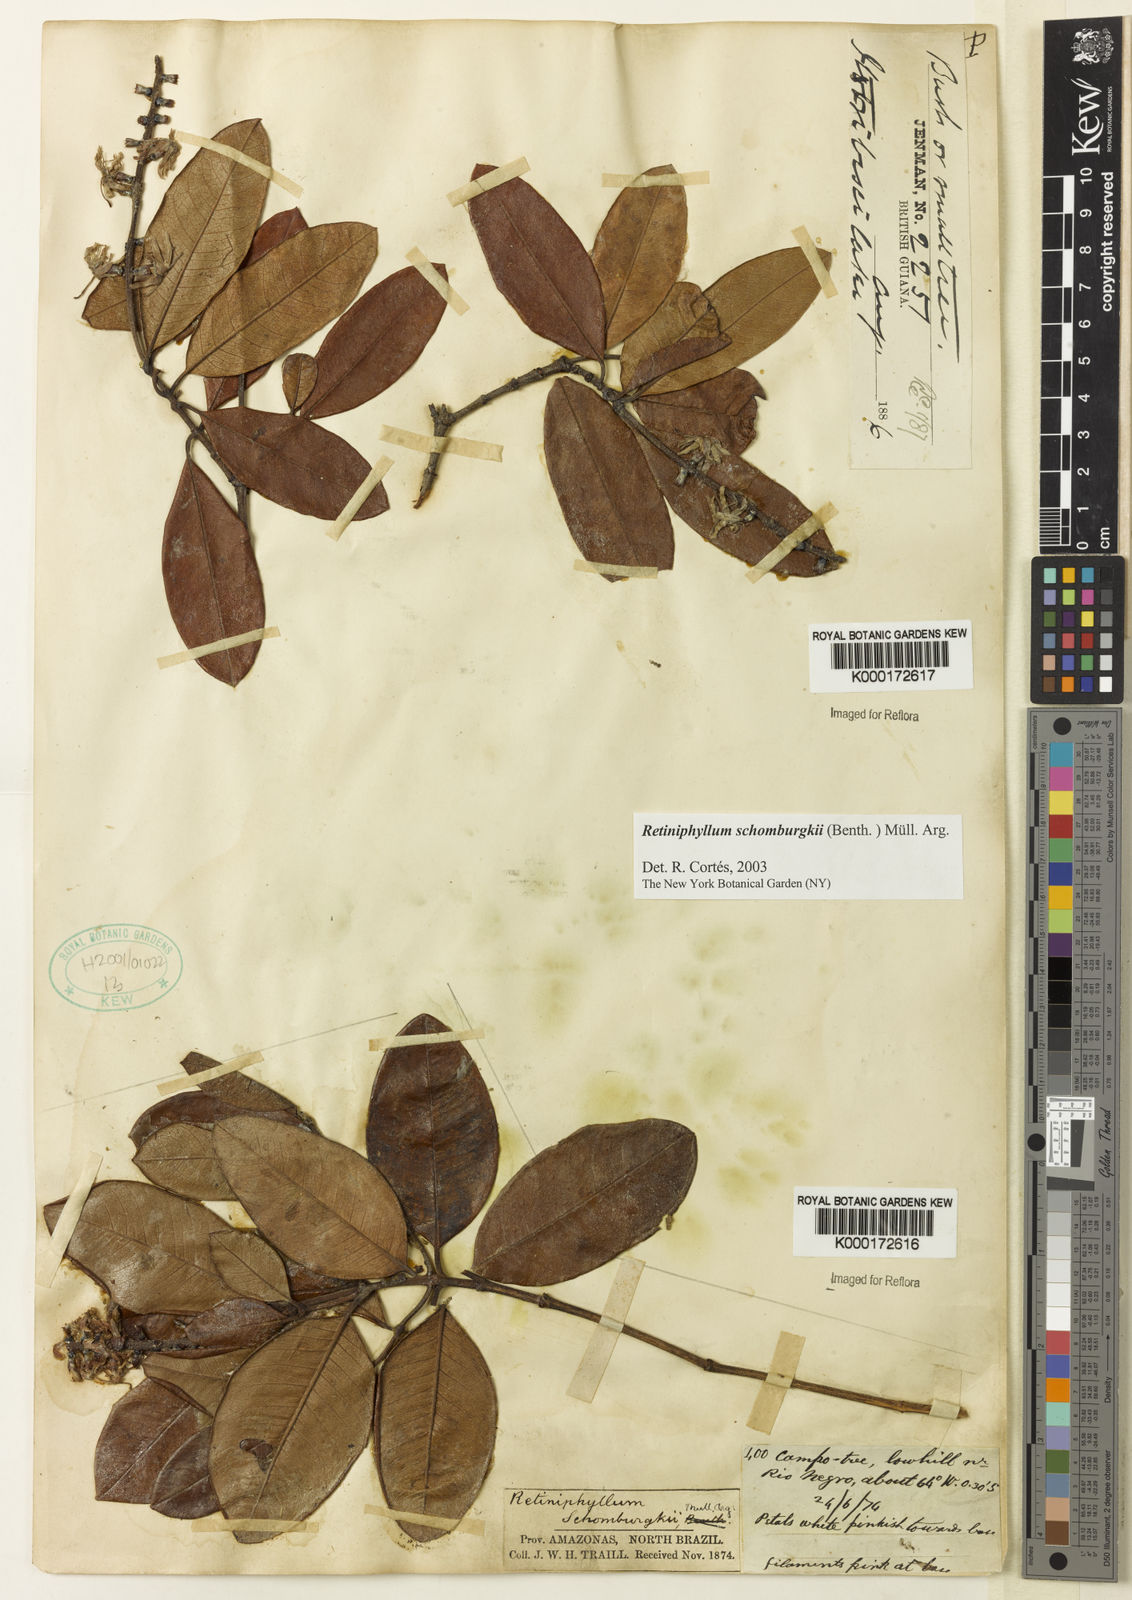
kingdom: Plantae
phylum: Tracheophyta
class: Magnoliopsida
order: Gentianales
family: Rubiaceae
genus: Retiniphyllum
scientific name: Retiniphyllum schomburgkii
